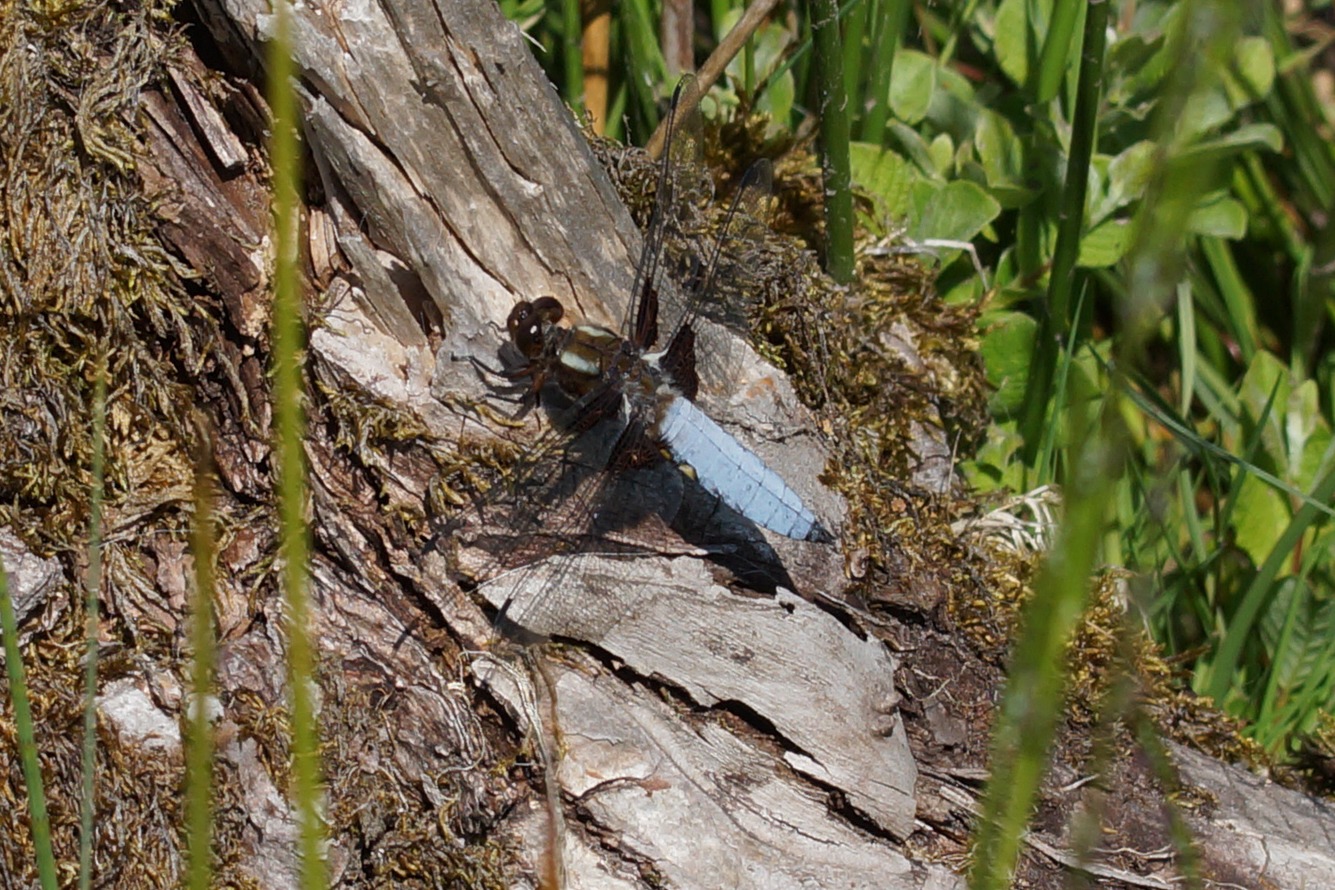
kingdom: Animalia
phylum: Arthropoda
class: Insecta
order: Odonata
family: Libellulidae
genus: Libellula
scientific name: Libellula depressa
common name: Blå libel
